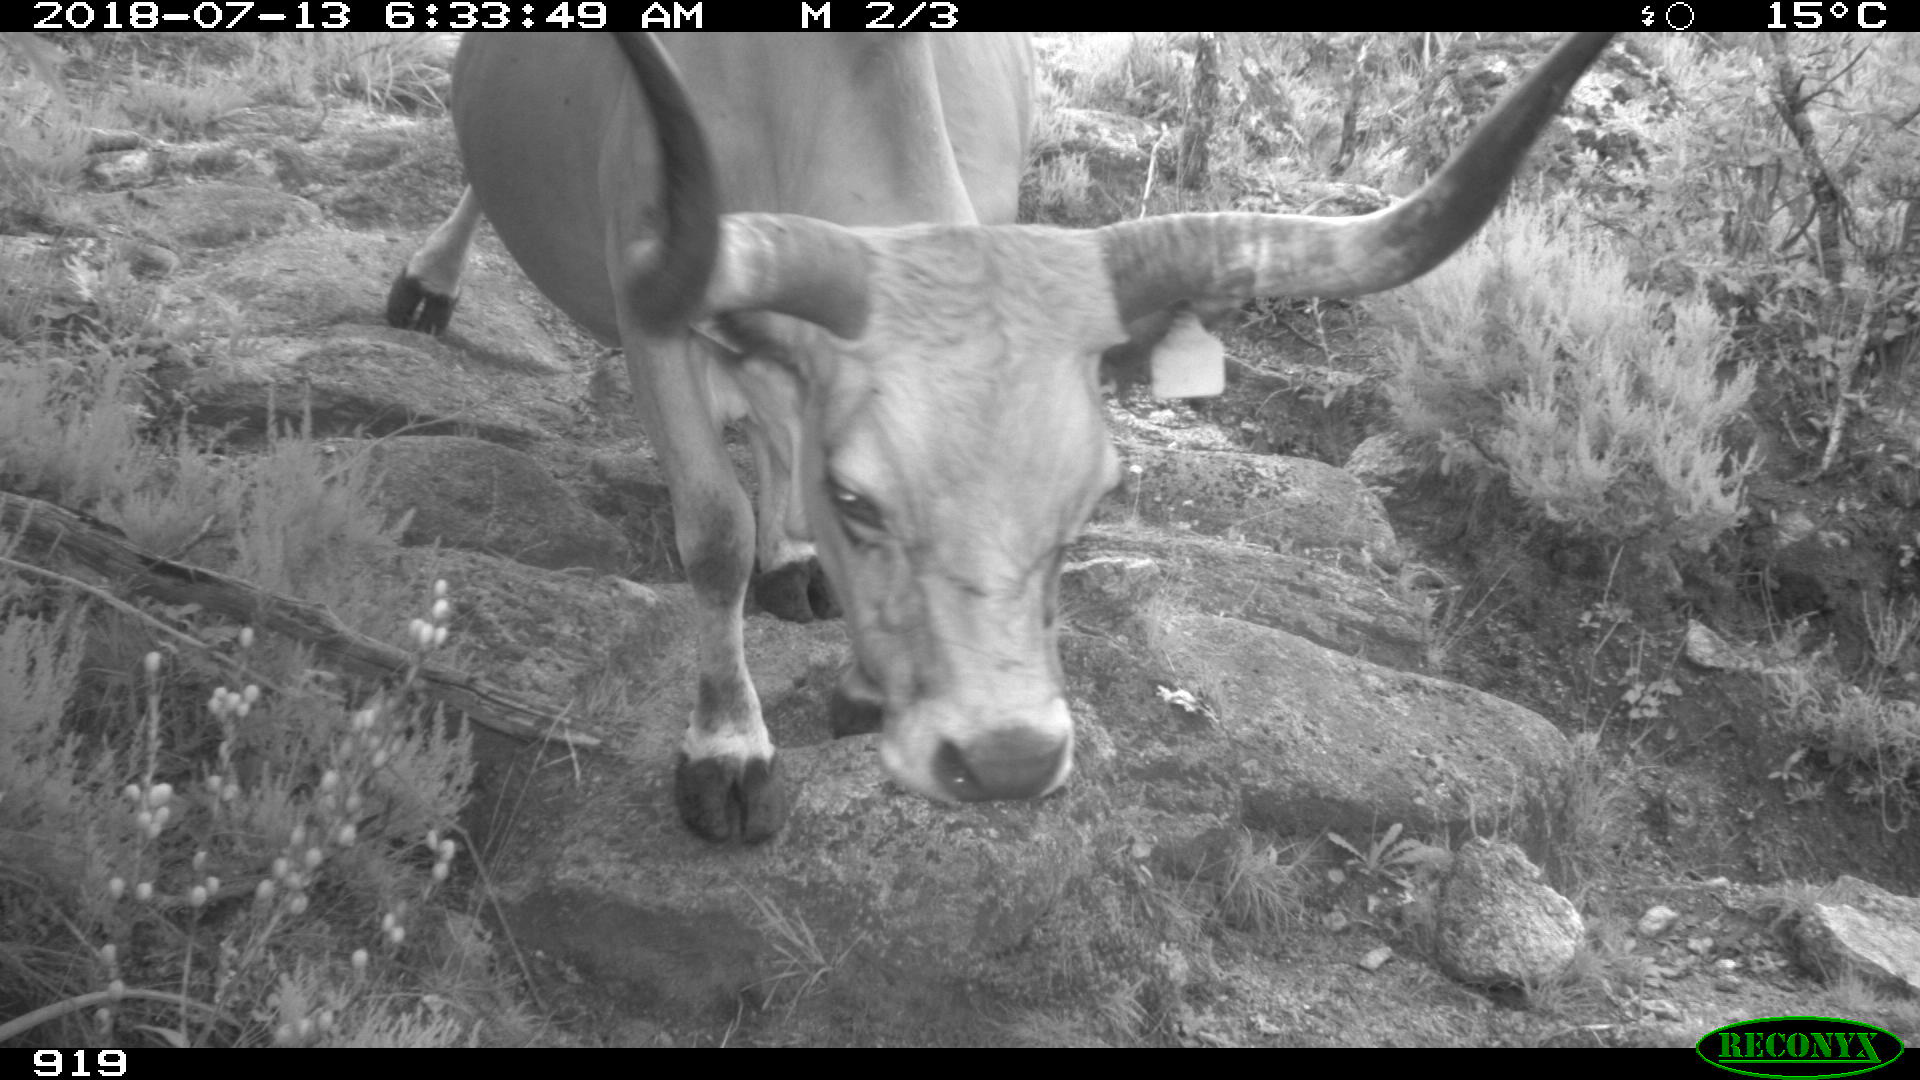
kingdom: Animalia
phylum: Chordata
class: Mammalia
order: Artiodactyla
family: Bovidae
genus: Bos
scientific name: Bos taurus
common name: Domesticated cattle
